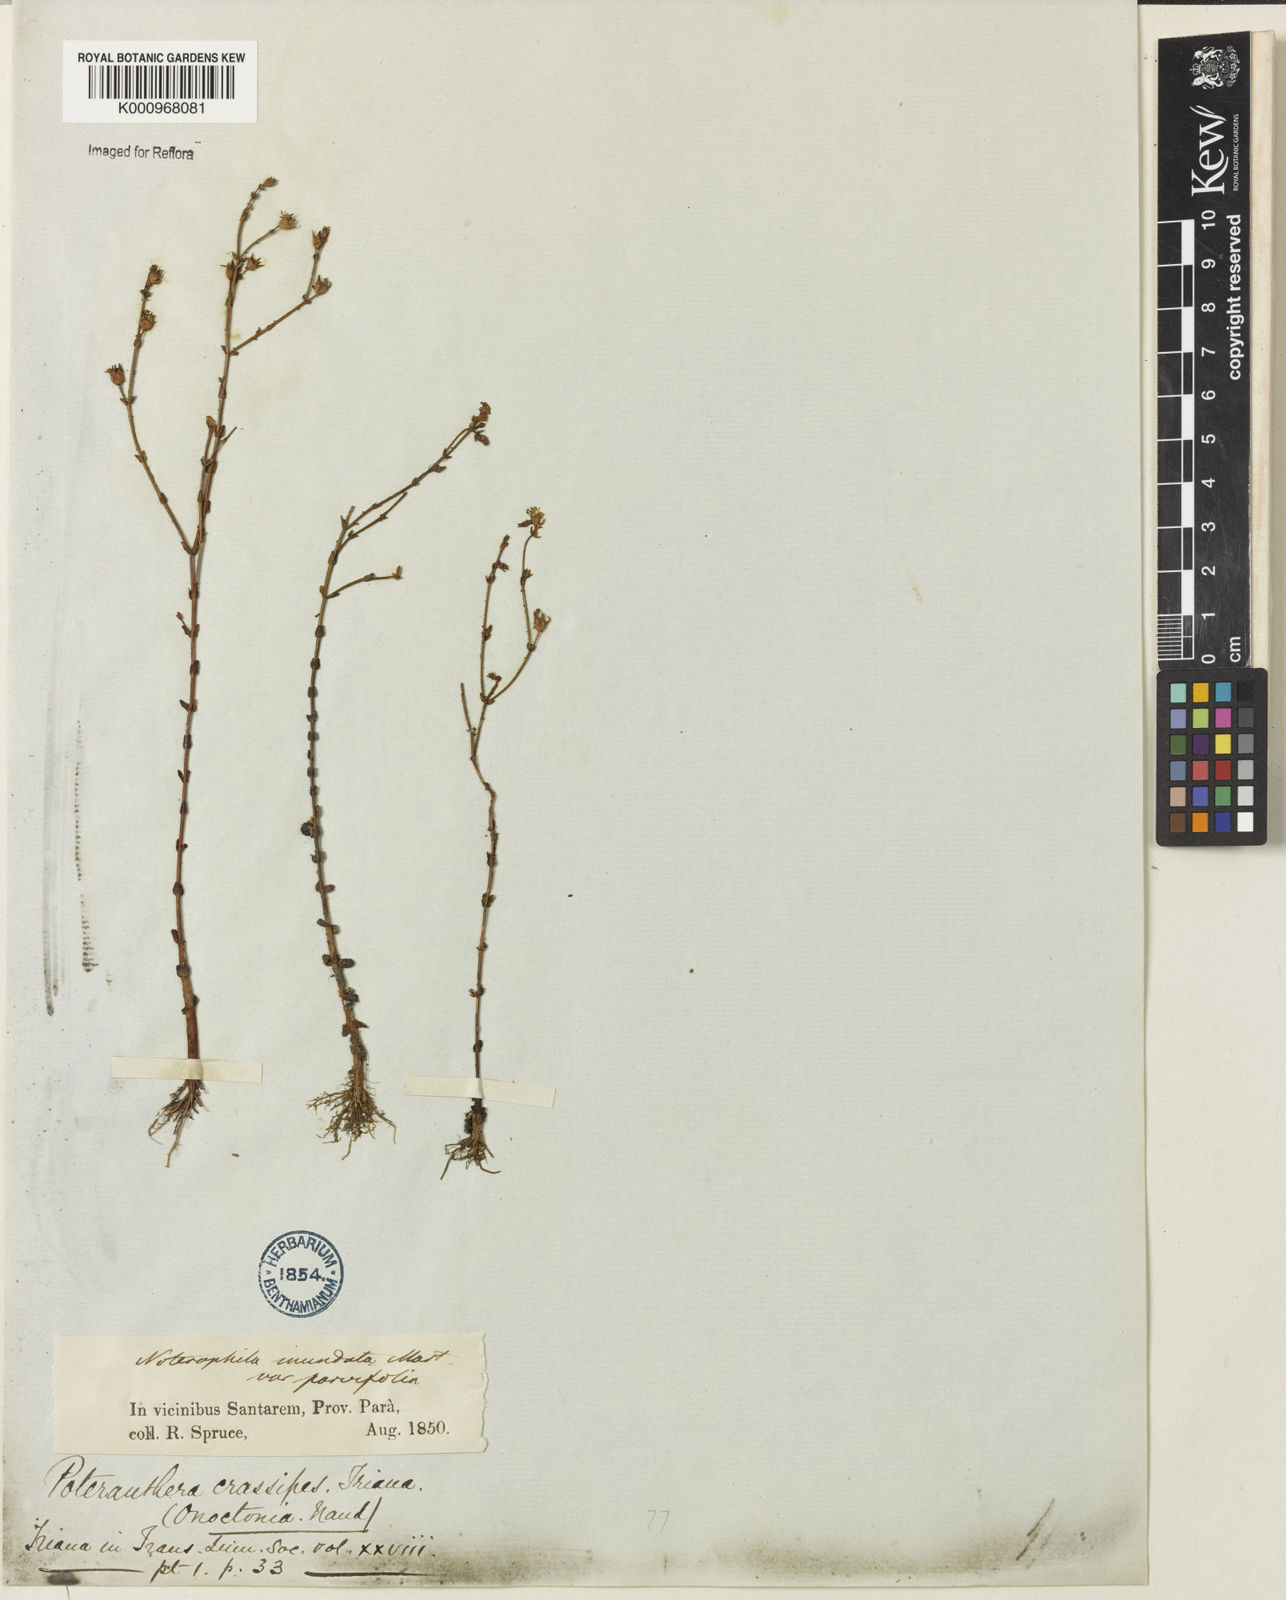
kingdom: Plantae
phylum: Tracheophyta
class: Magnoliopsida
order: Myrtales
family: Melastomataceae
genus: Noterophila
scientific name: Noterophila crassipes
